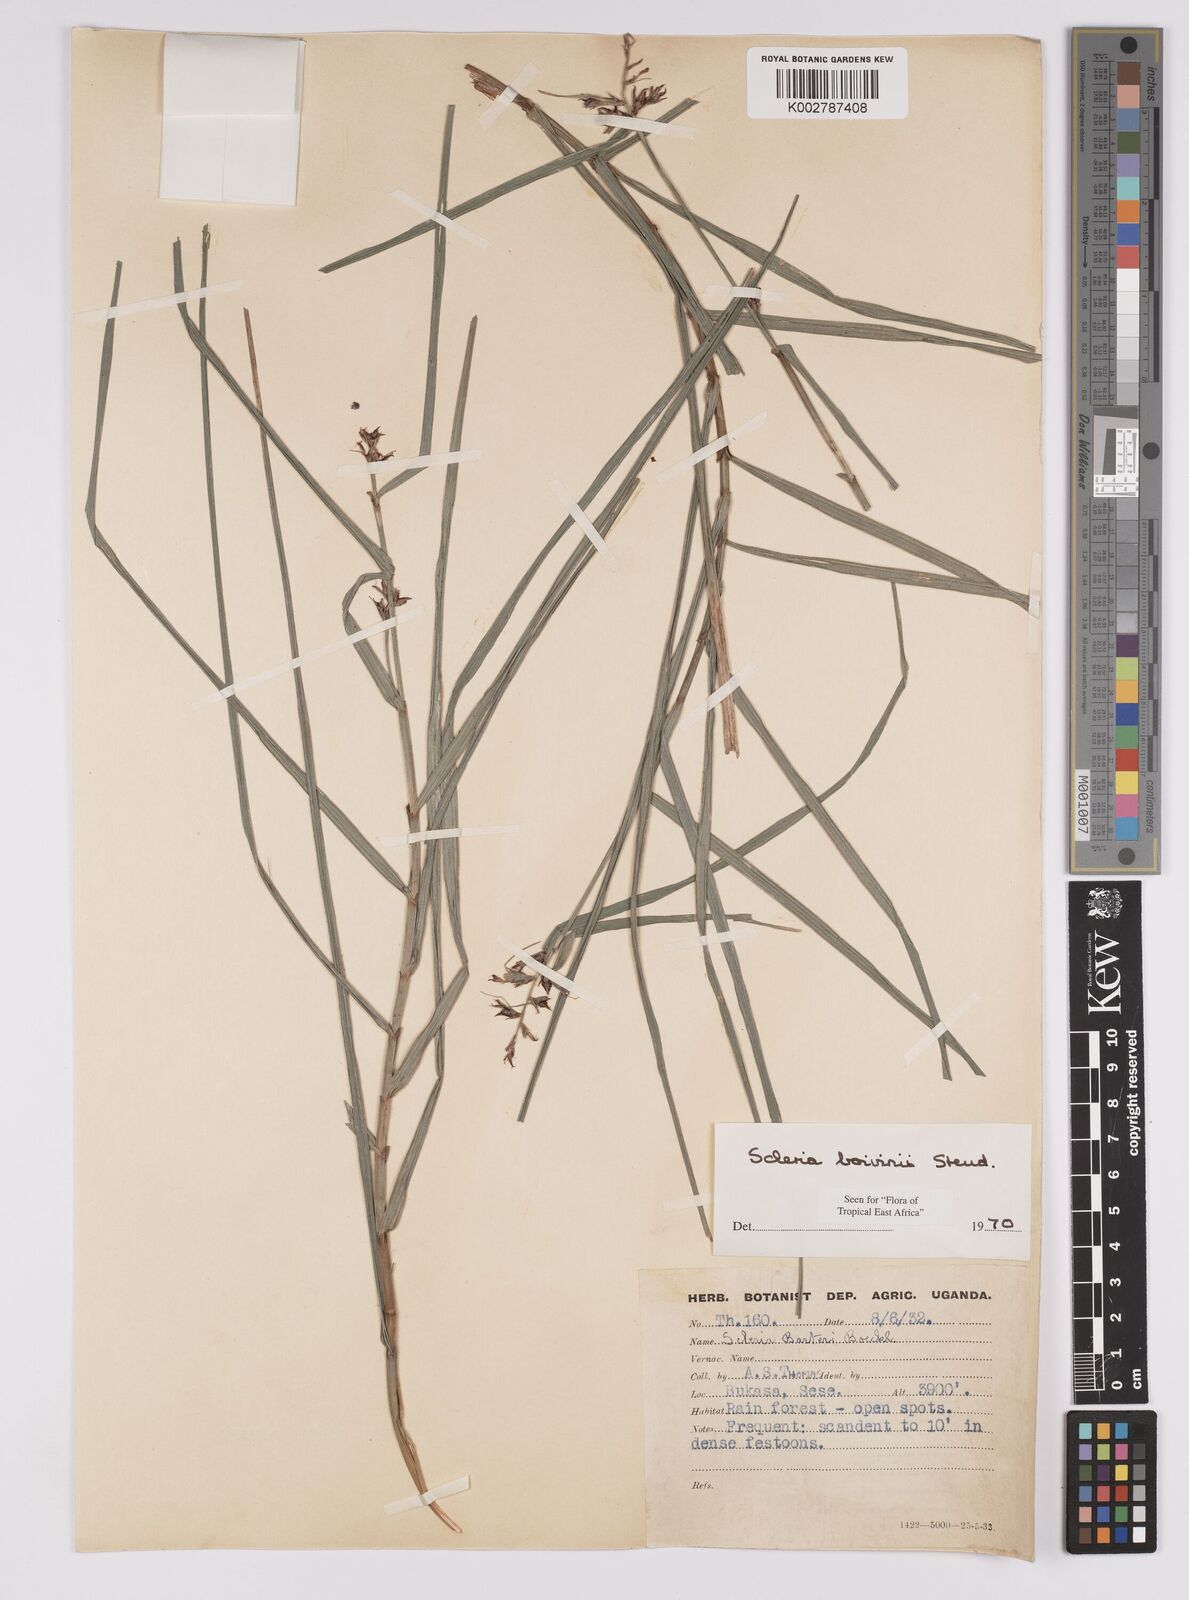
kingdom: Plantae
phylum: Tracheophyta
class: Liliopsida
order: Poales
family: Cyperaceae
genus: Scleria
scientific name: Scleria boivinii
